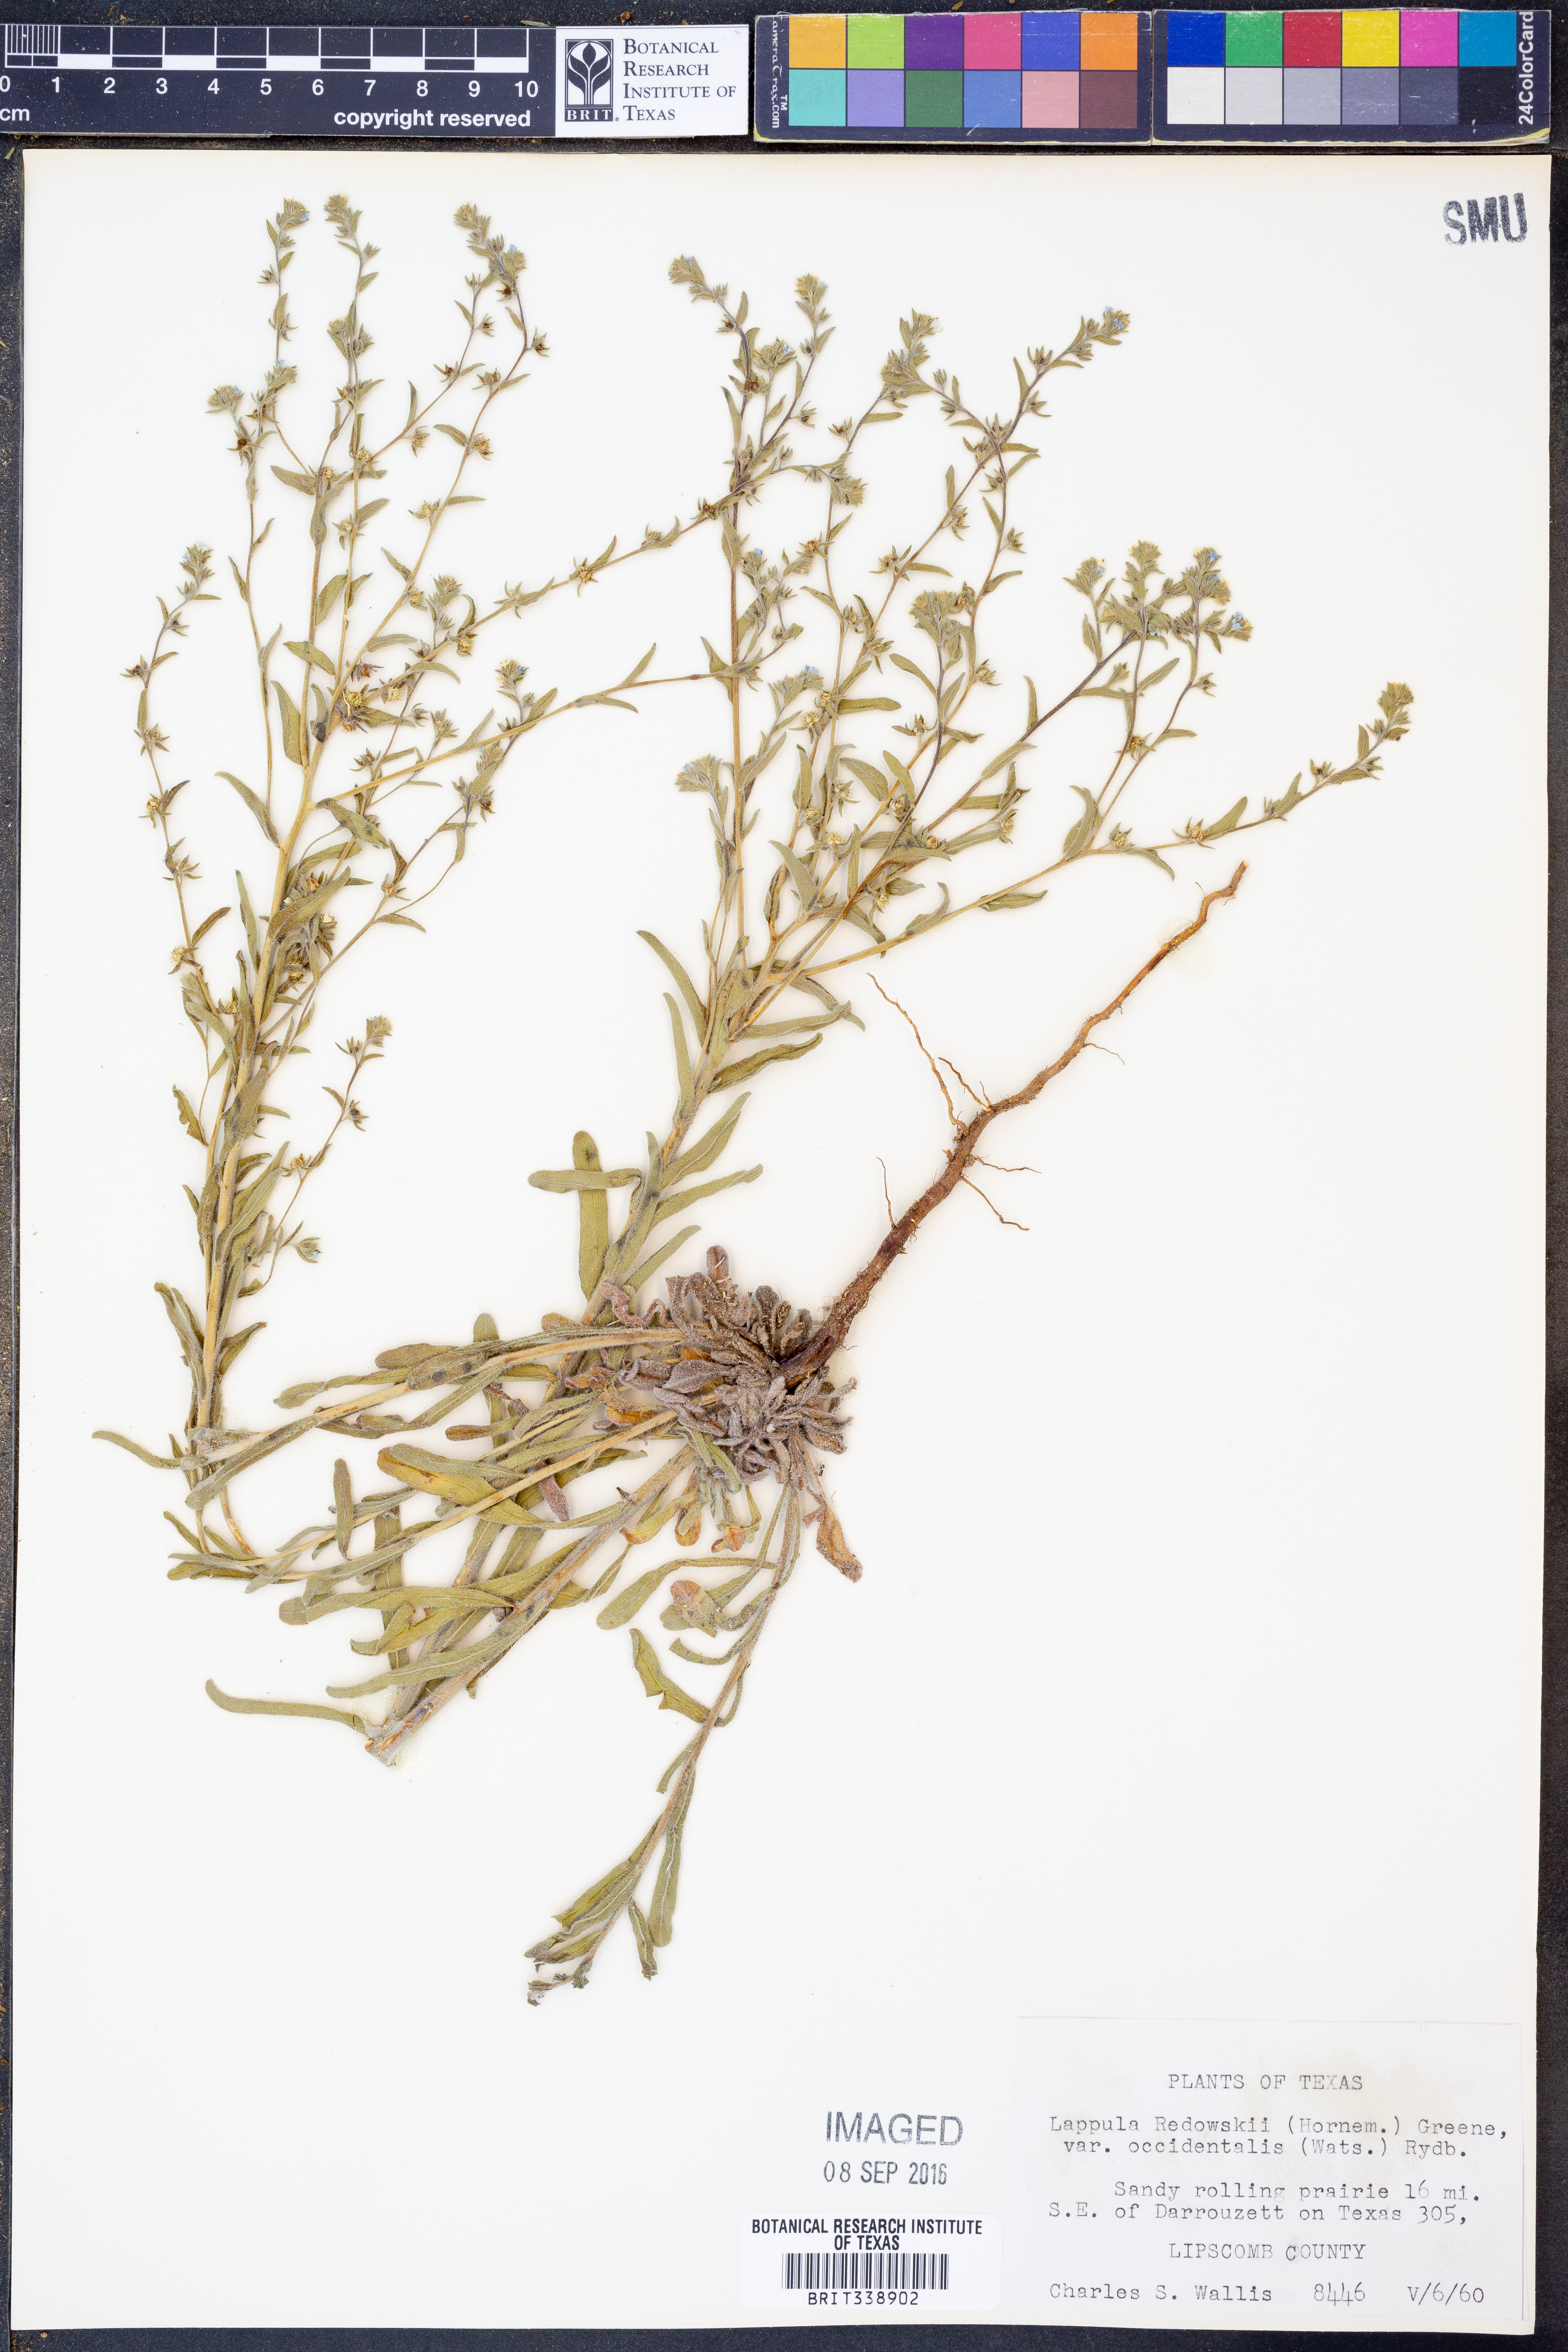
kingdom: Plantae
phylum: Tracheophyta
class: Magnoliopsida
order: Boraginales
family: Boraginaceae
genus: Lappula
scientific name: Lappula occidentalis
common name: Western stickseed
